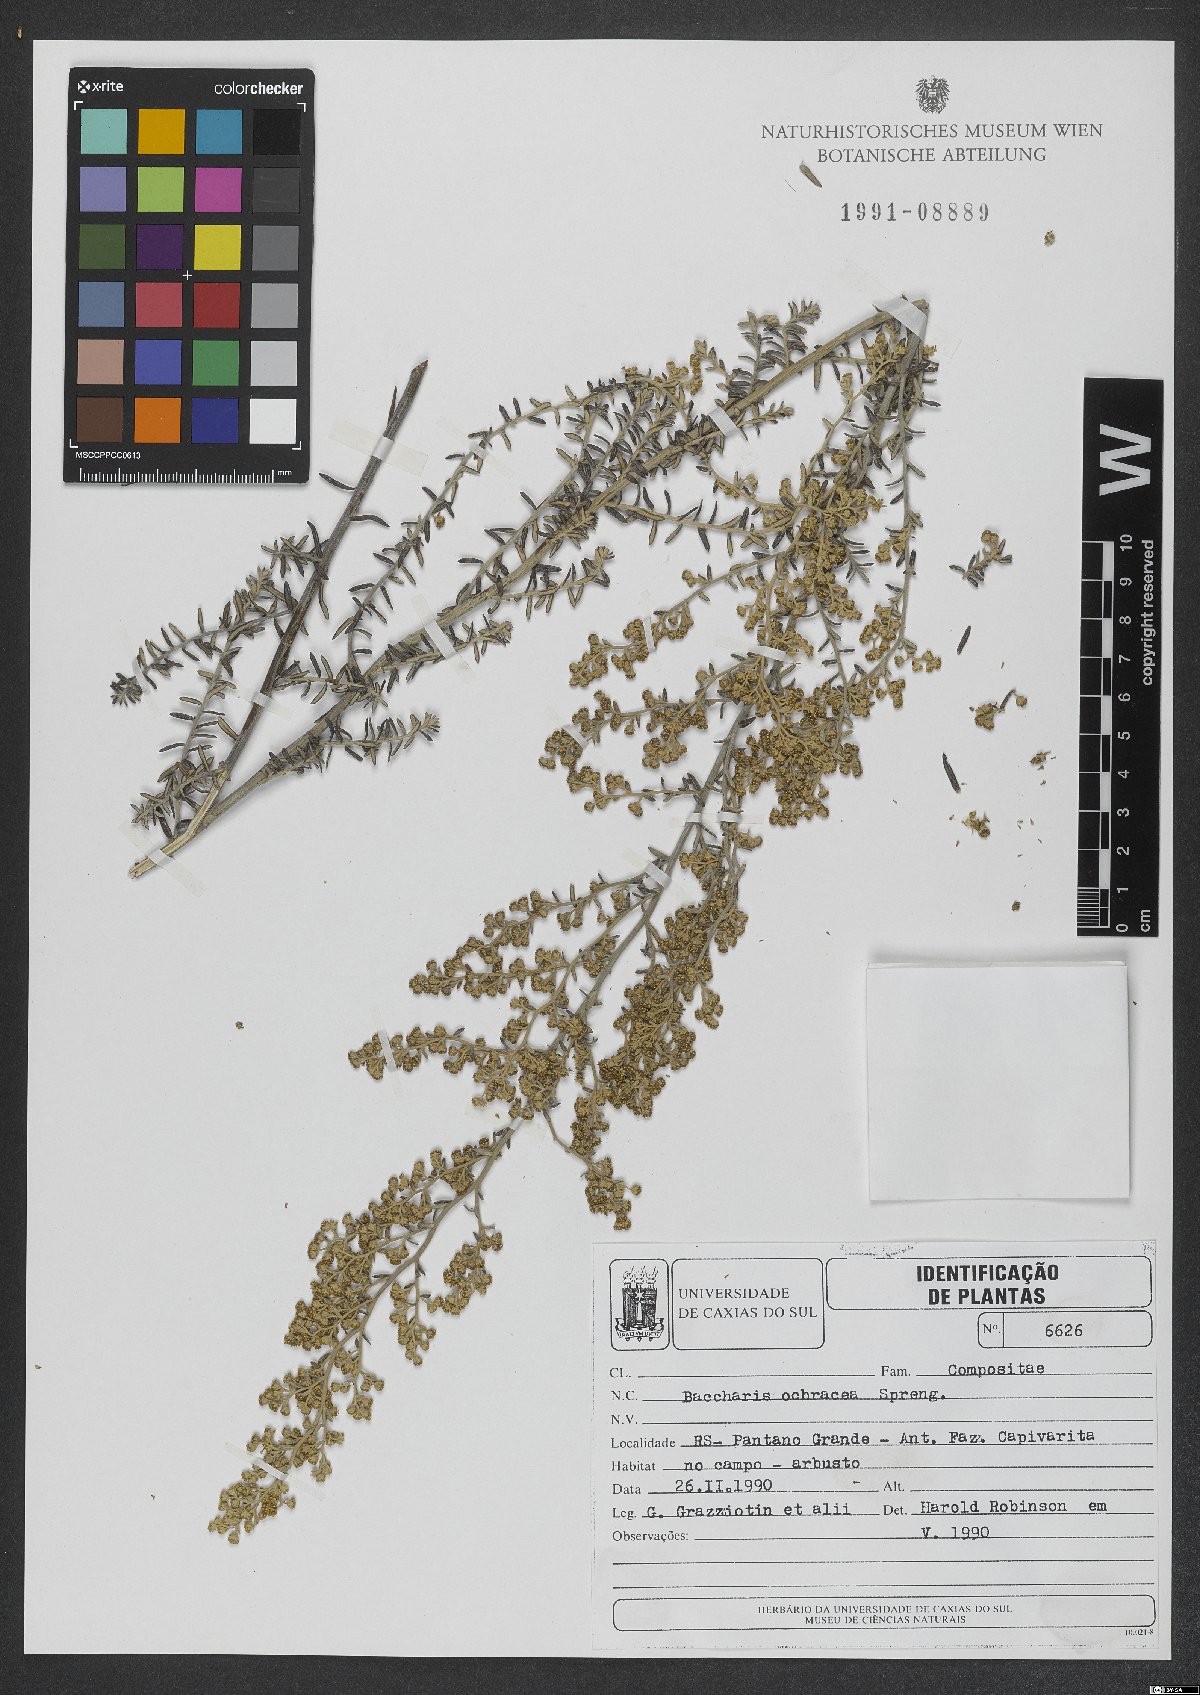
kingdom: Plantae
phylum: Tracheophyta
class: Magnoliopsida
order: Asterales
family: Asteraceae
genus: Baccharis
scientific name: Baccharis ochracea
